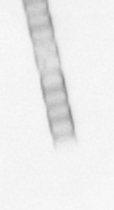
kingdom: Chromista
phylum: Ochrophyta
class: Bacillariophyceae
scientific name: Bacillariophyceae
